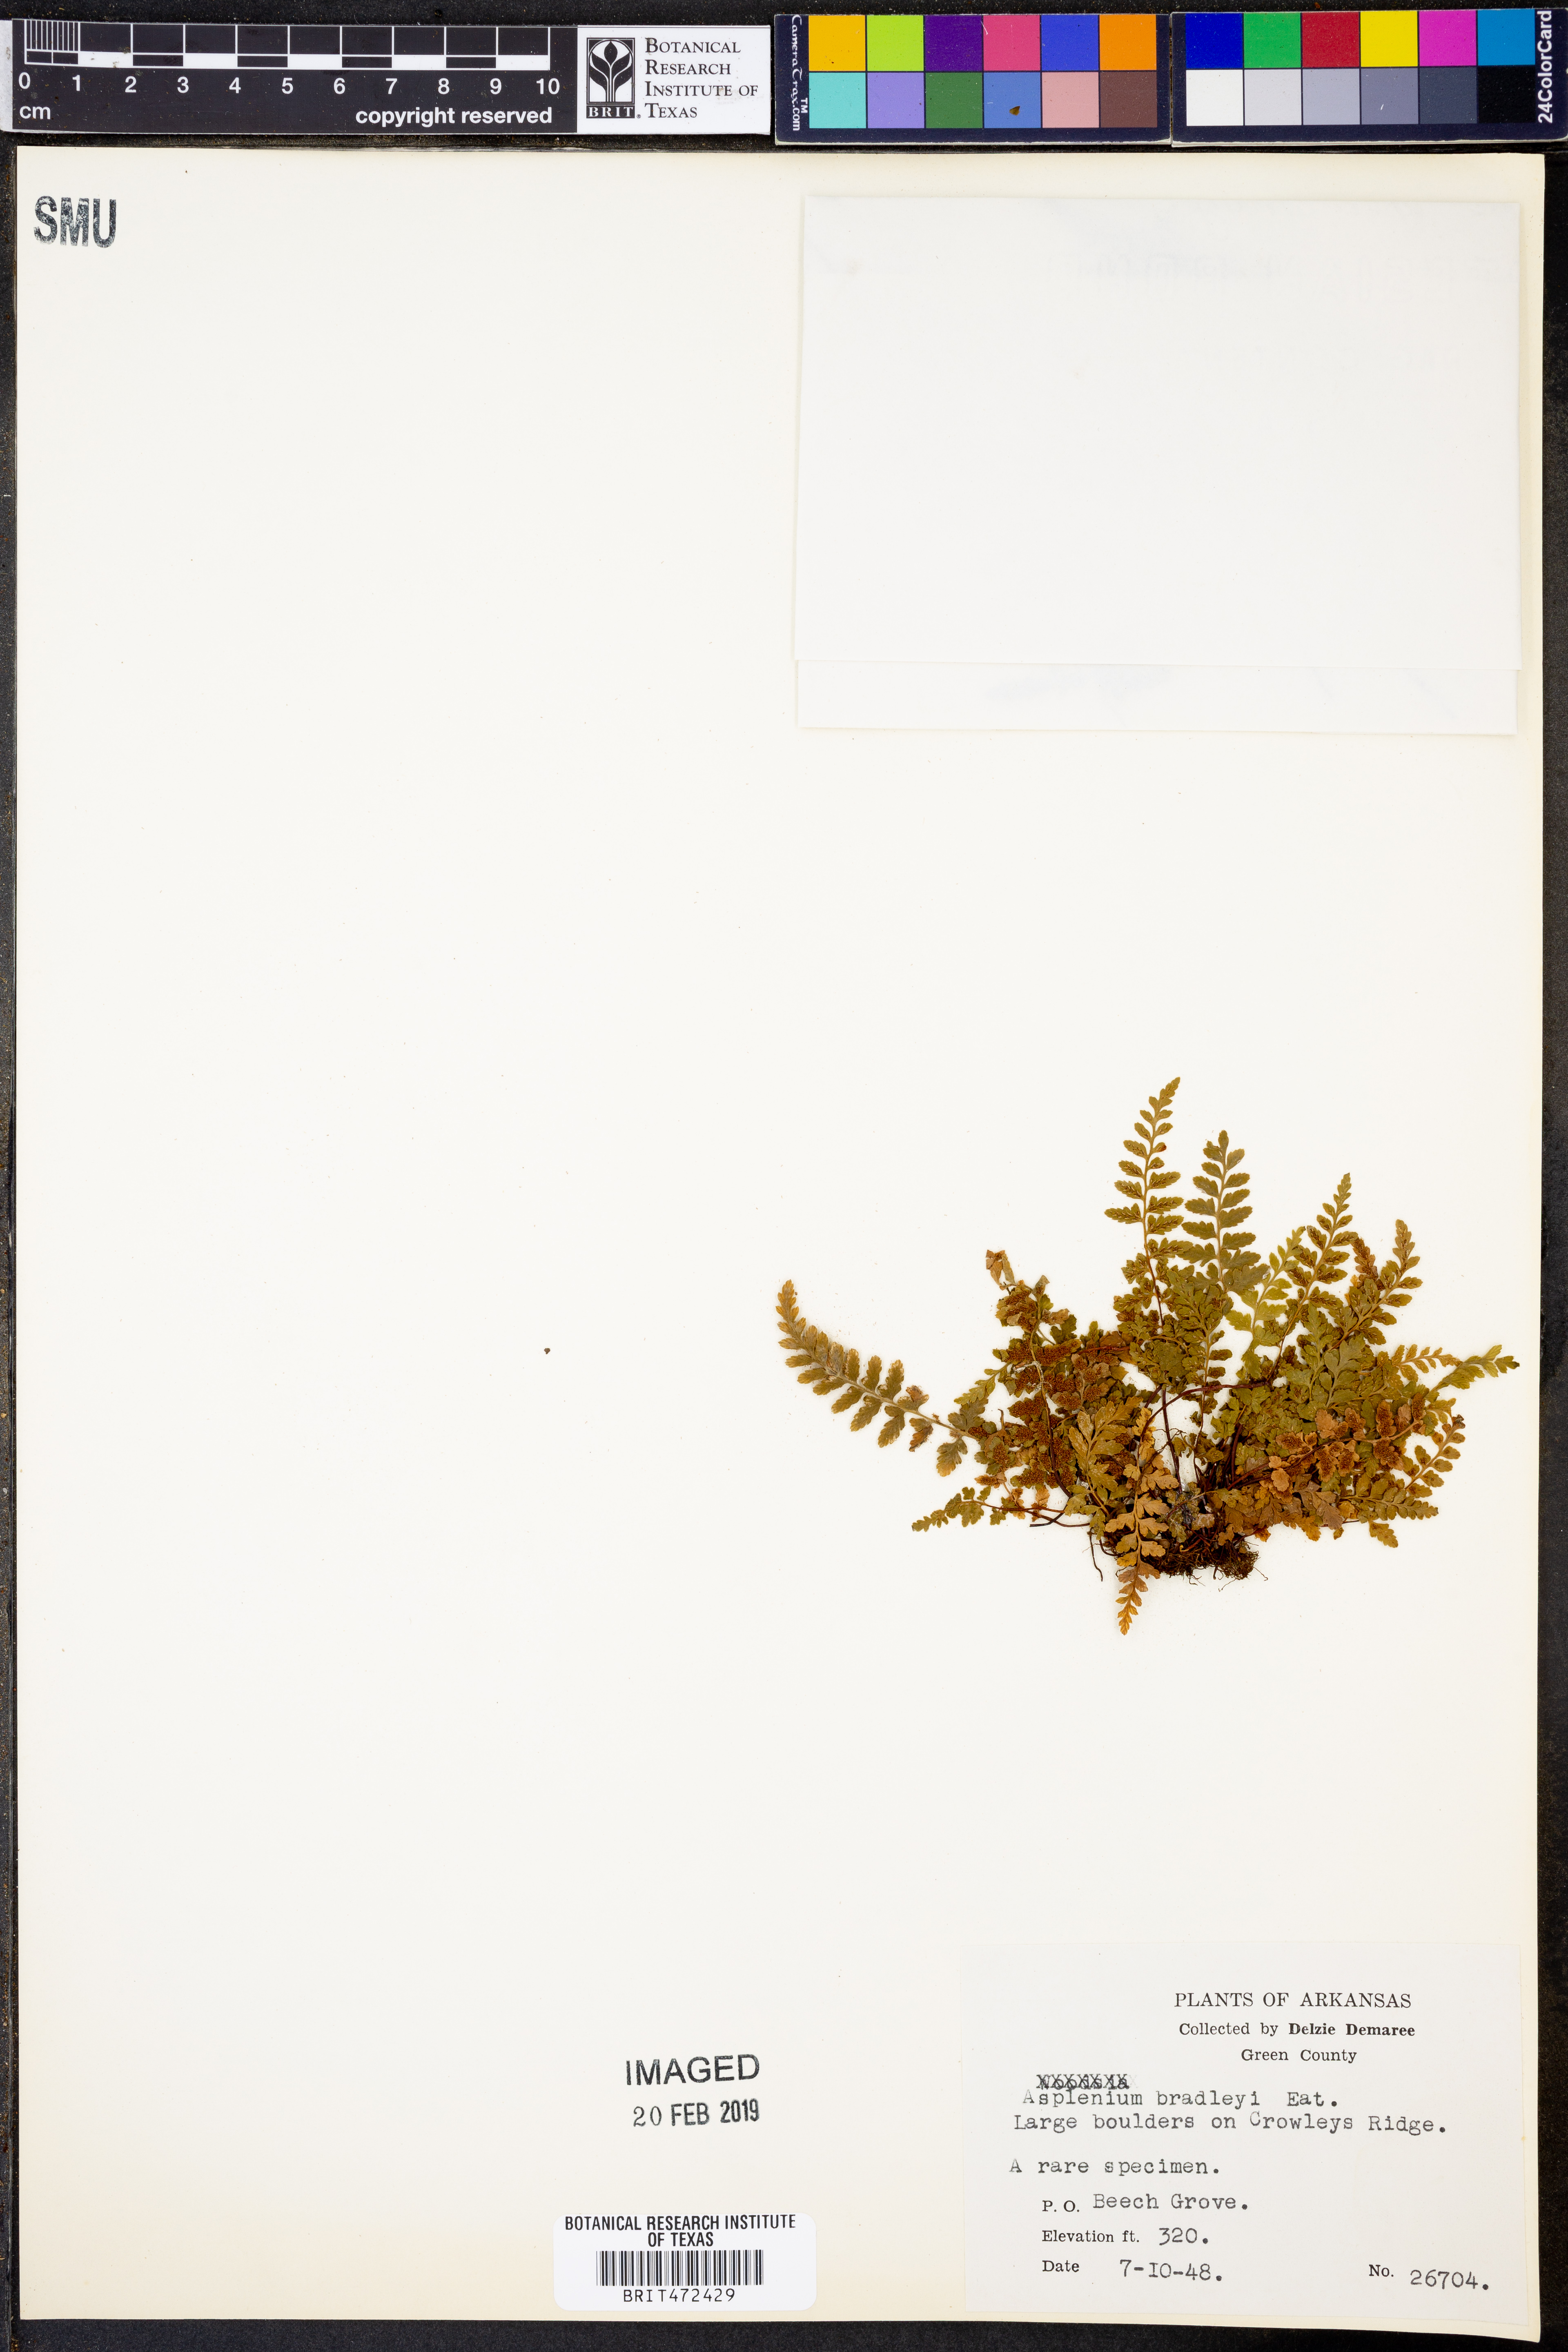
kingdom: Plantae
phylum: Tracheophyta
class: Polypodiopsida
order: Polypodiales
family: Aspleniaceae
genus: Asplenium
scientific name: Asplenium bradleyi
